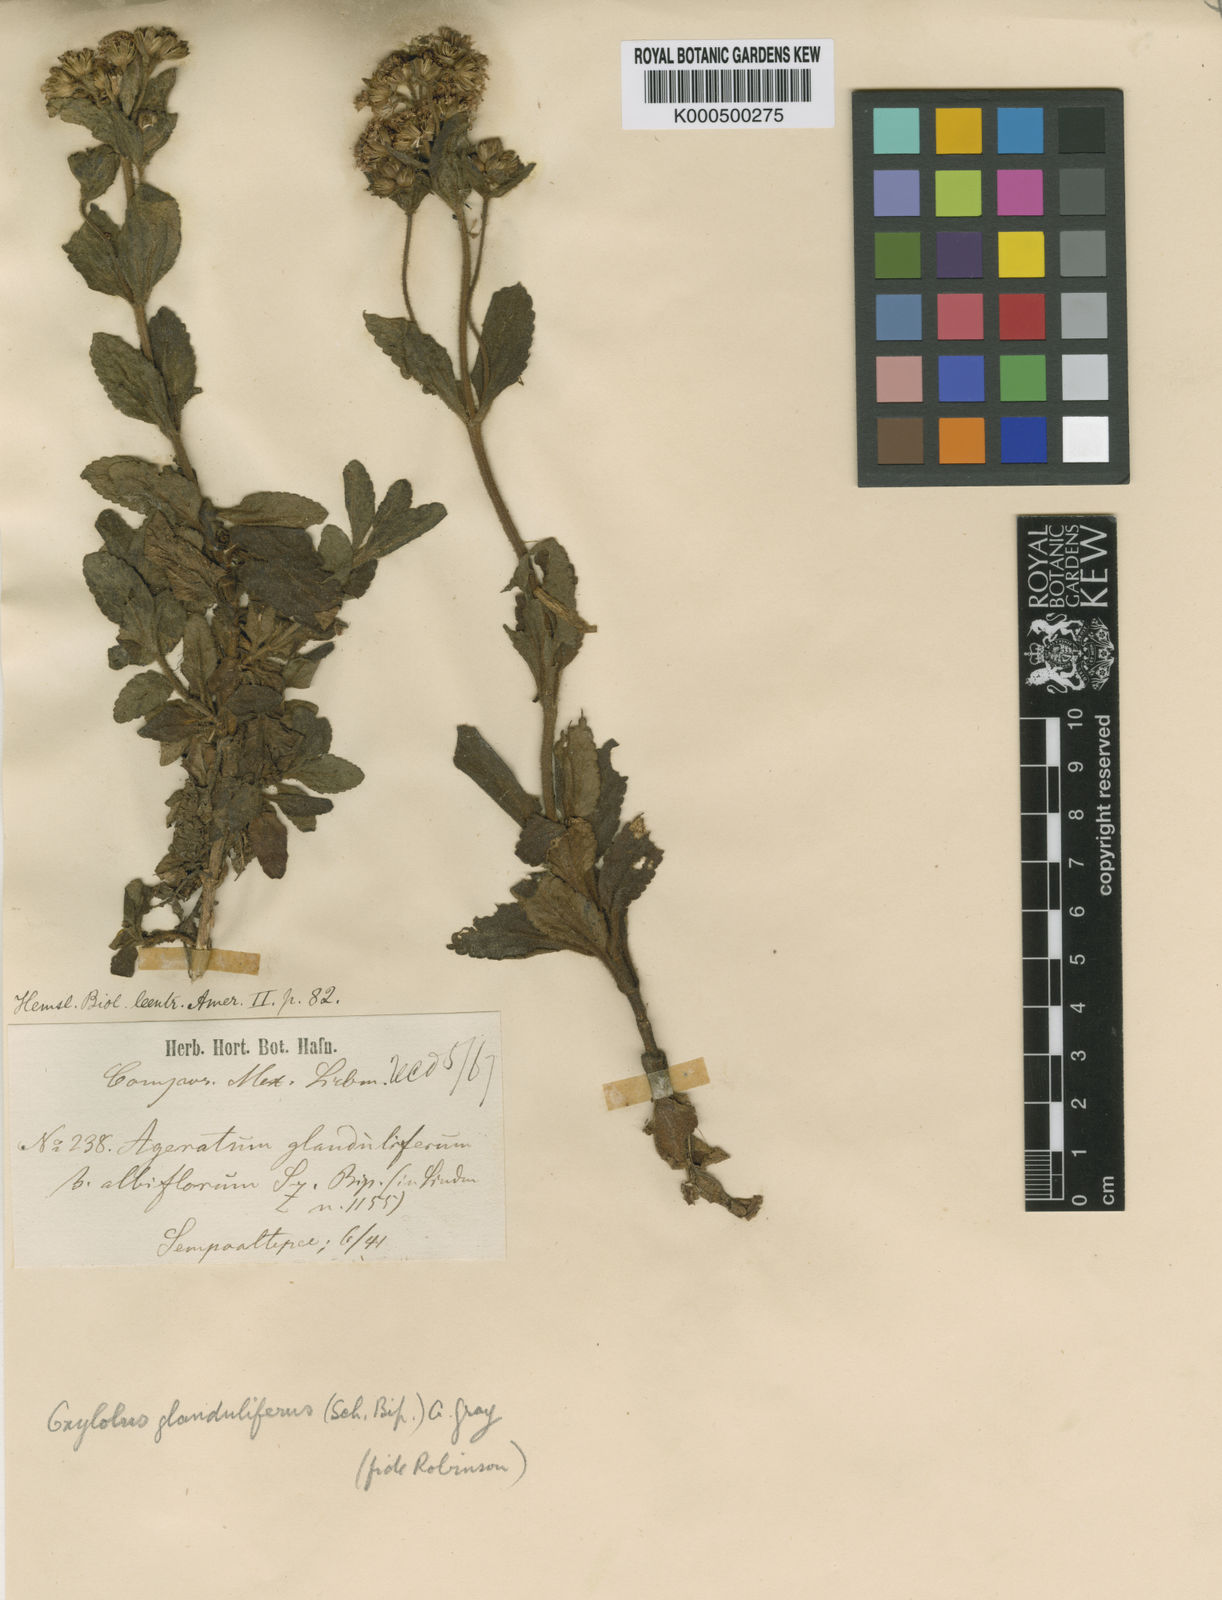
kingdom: Plantae
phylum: Tracheophyta
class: Magnoliopsida
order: Asterales
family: Asteraceae
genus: Oxylobus
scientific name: Oxylobus glanduliferus
